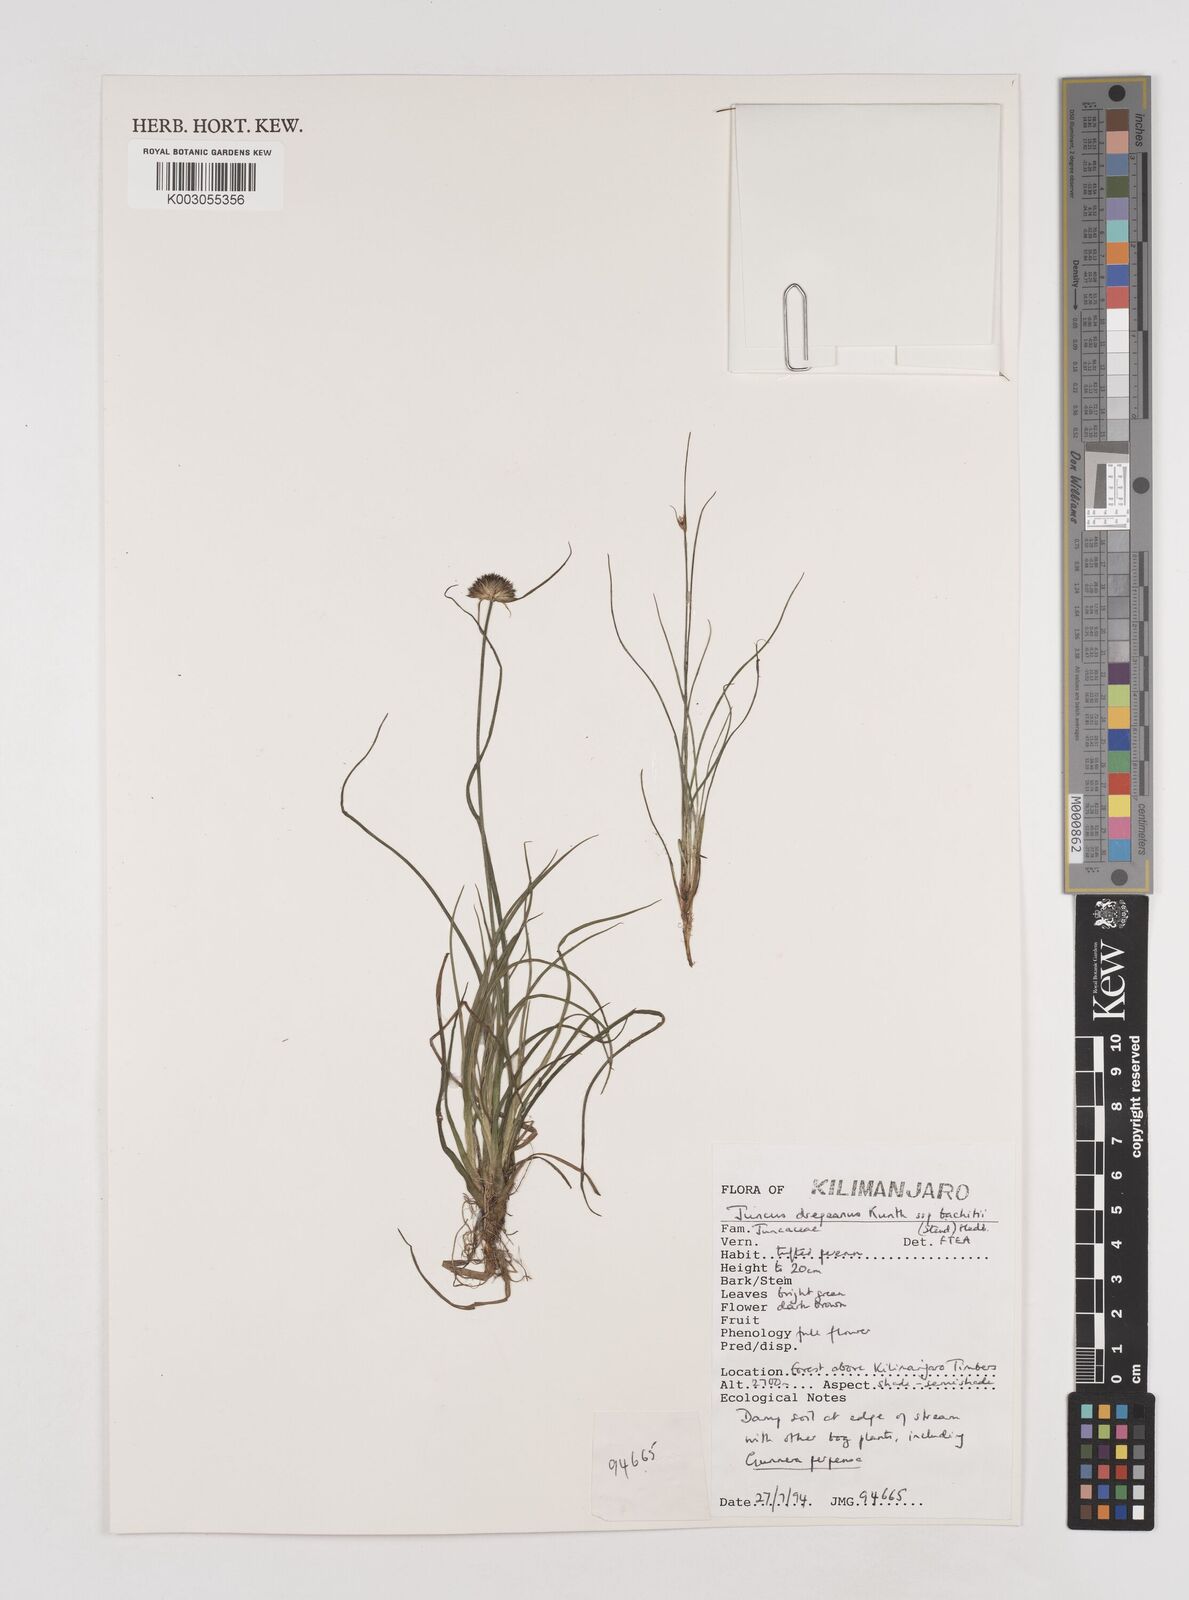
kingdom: Plantae
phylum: Tracheophyta
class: Liliopsida
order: Poales
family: Juncaceae
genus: Juncus
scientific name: Juncus dregeanus
